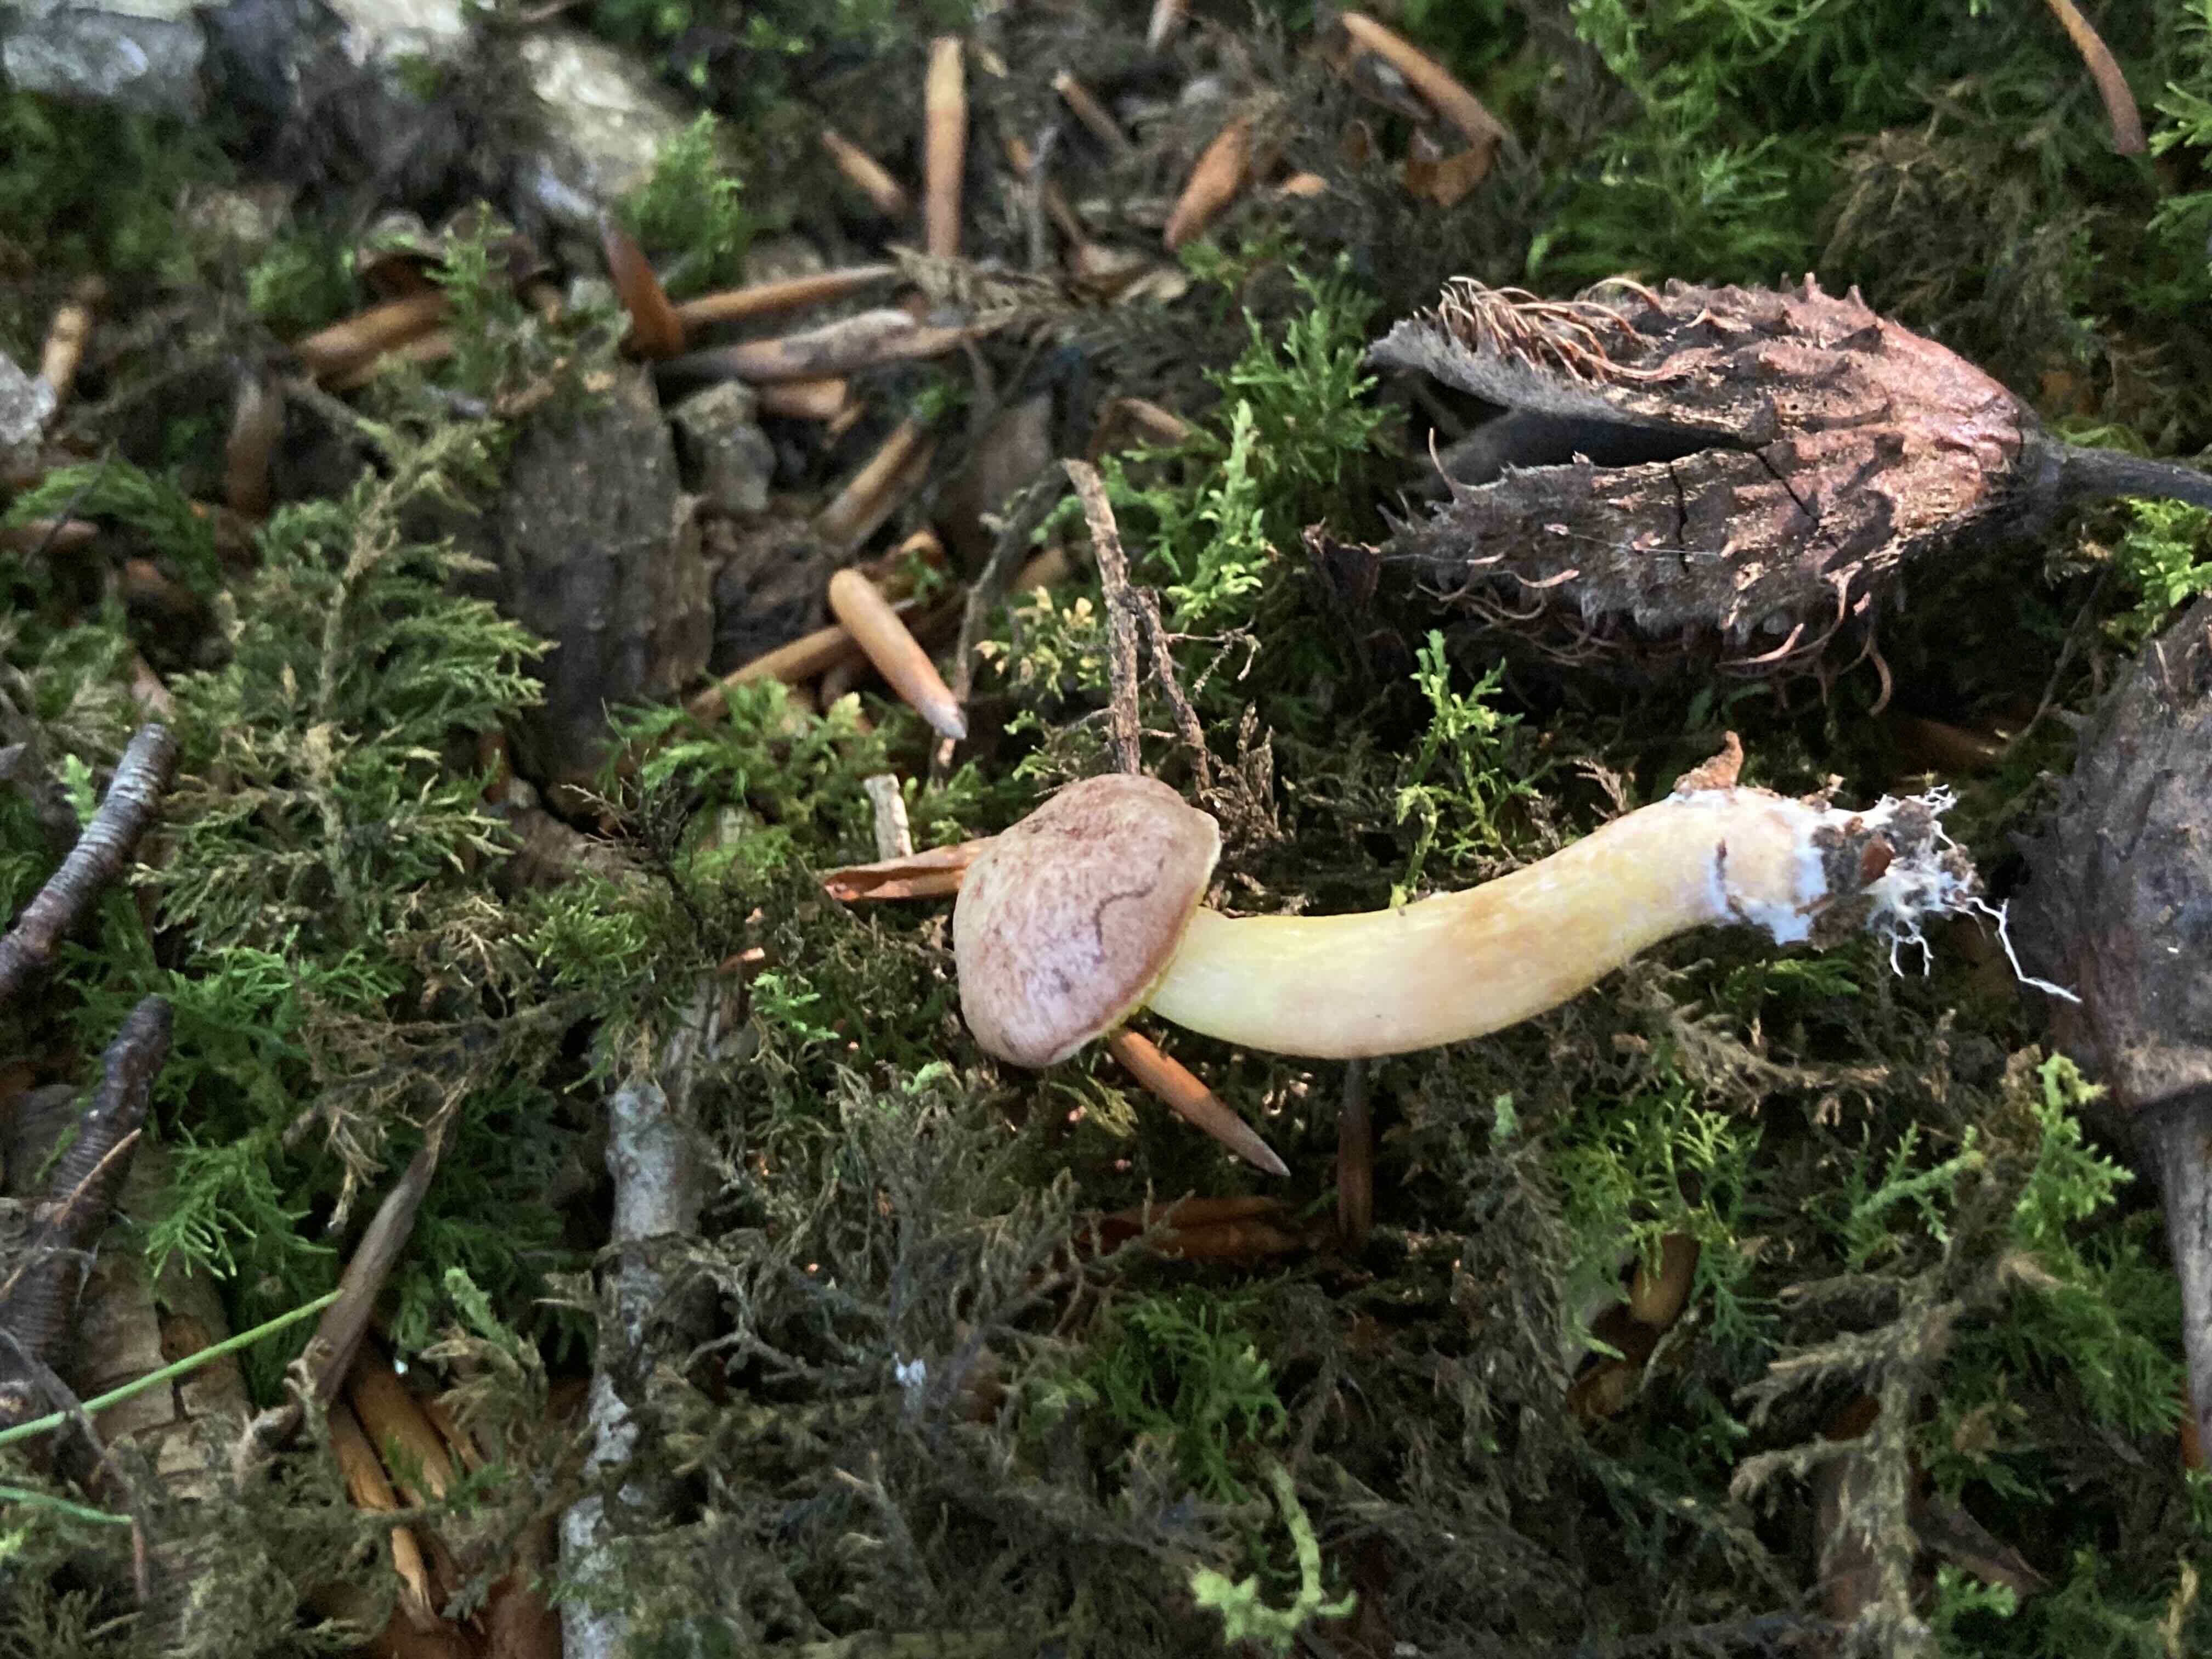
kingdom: Fungi
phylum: Basidiomycota
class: Agaricomycetes
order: Boletales
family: Boletaceae
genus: Aureoboletus
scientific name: Aureoboletus gentilis
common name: guldrørhat
